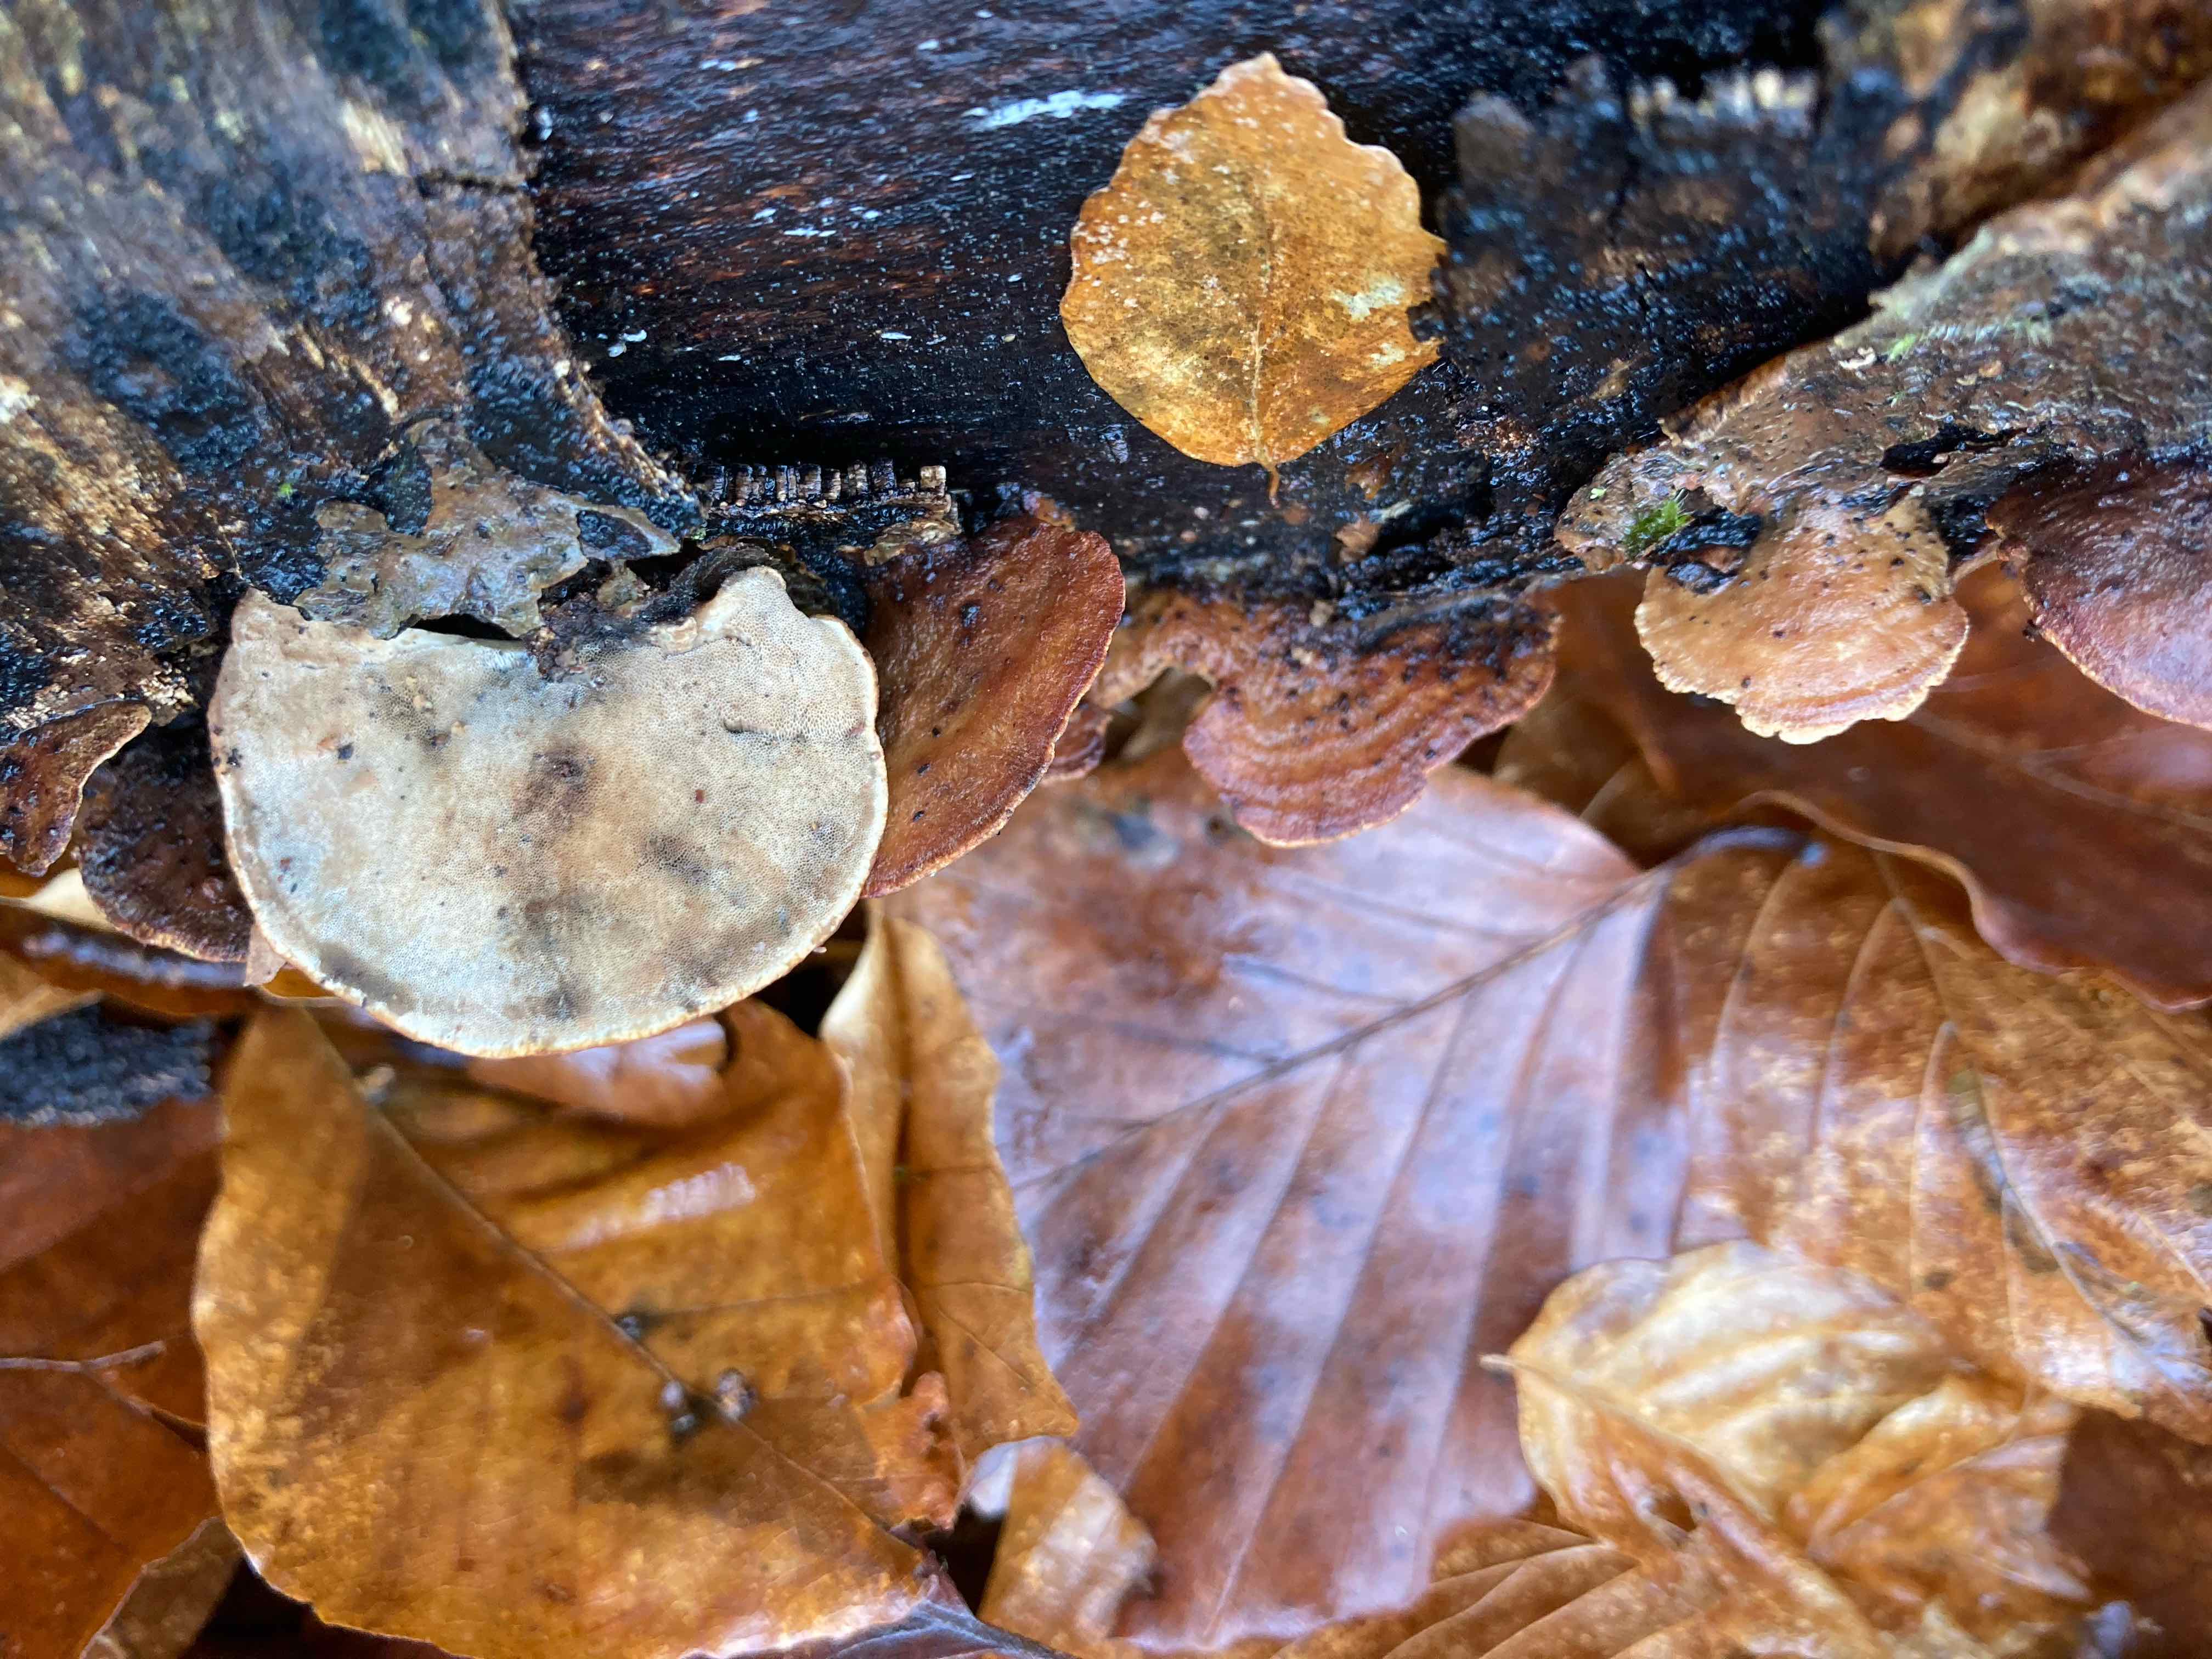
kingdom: Fungi
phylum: Basidiomycota
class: Agaricomycetes
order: Polyporales
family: Polyporaceae
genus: Trametes
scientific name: Trametes
